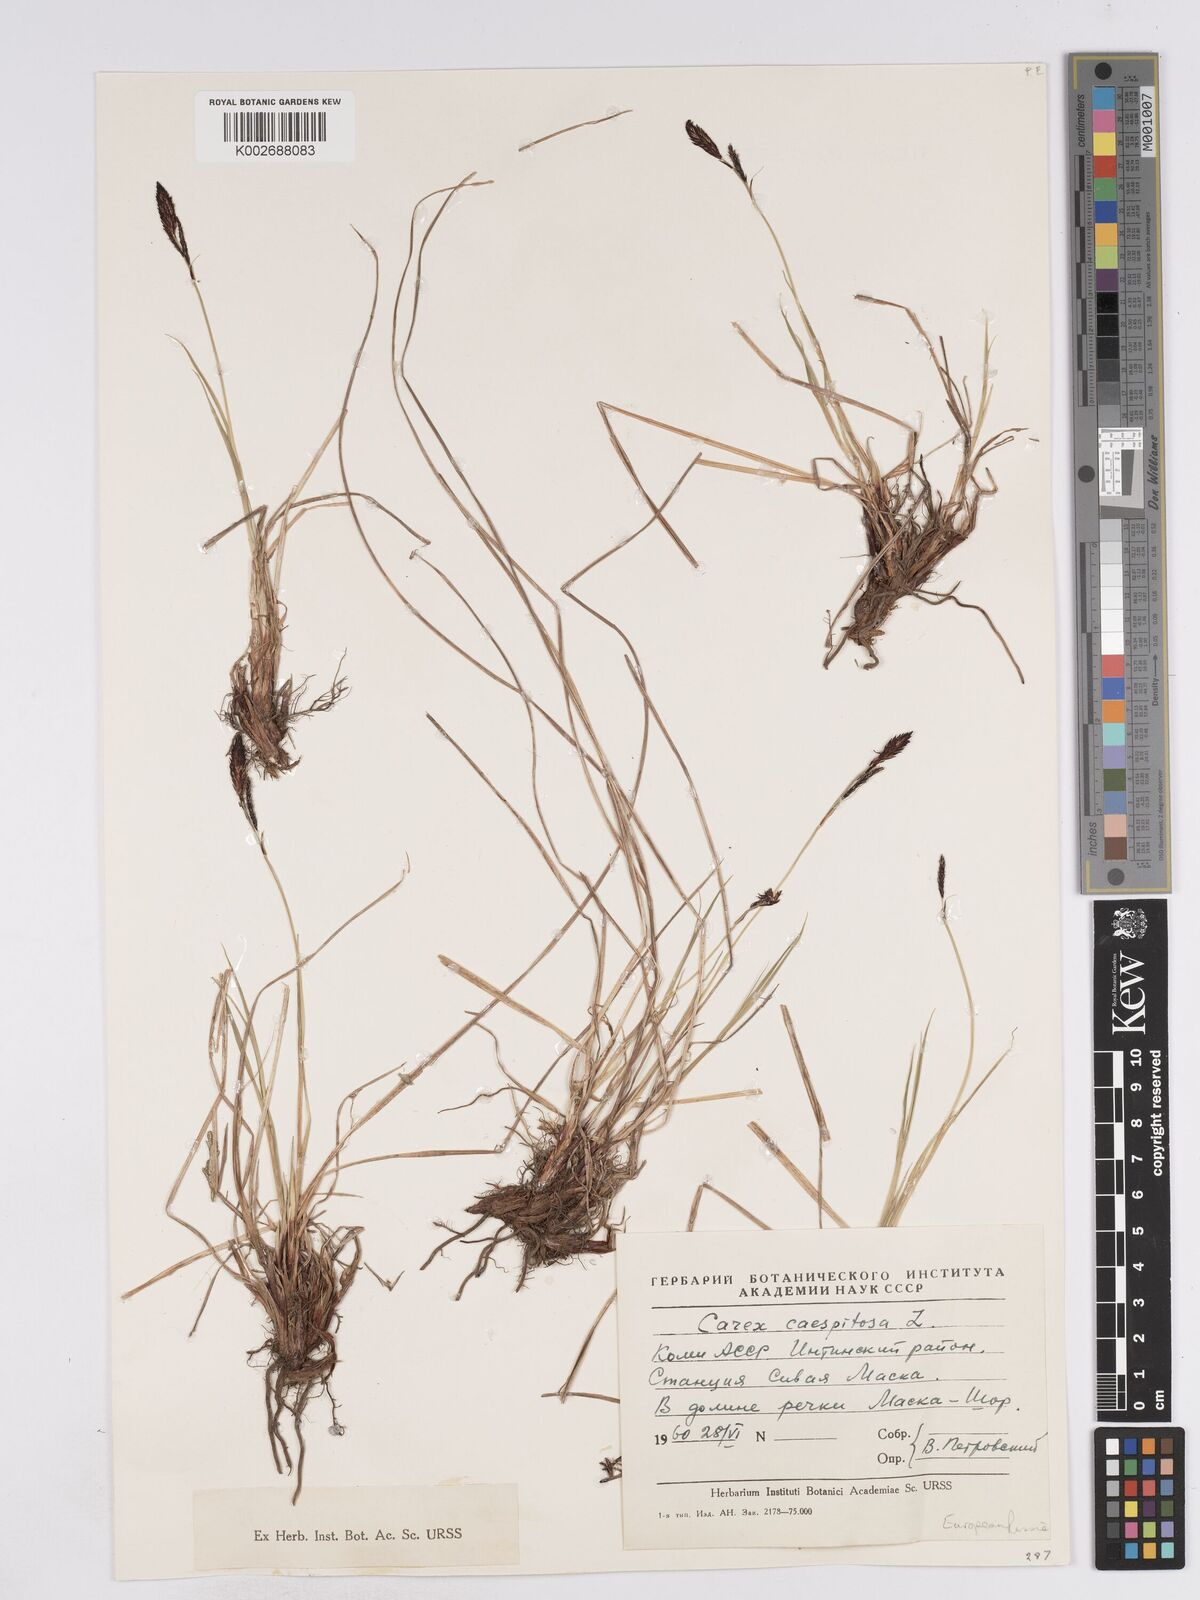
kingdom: Plantae
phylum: Tracheophyta
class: Liliopsida
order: Poales
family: Cyperaceae
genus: Carex
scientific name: Carex
